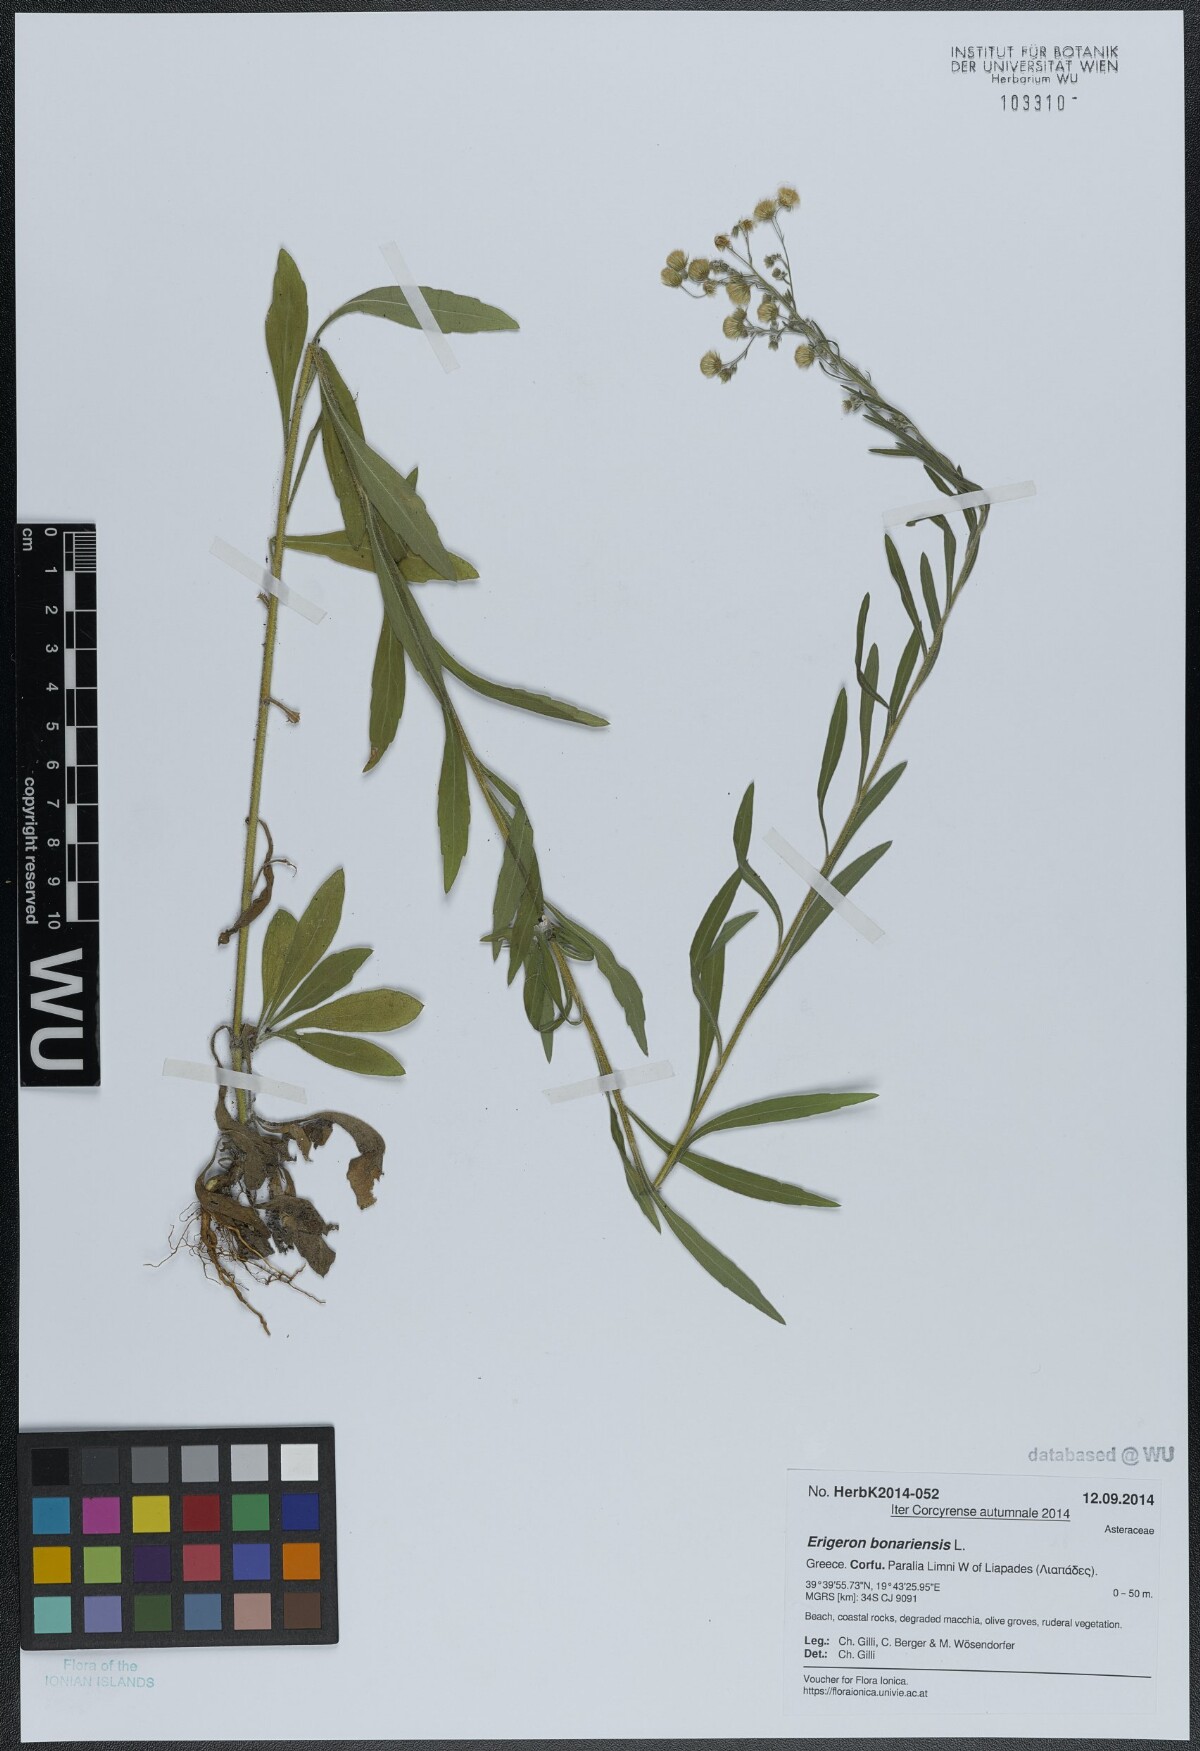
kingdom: Plantae
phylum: Tracheophyta
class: Magnoliopsida
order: Asterales
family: Asteraceae
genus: Erigeron
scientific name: Erigeron bonariensis
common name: Argentine fleabane
